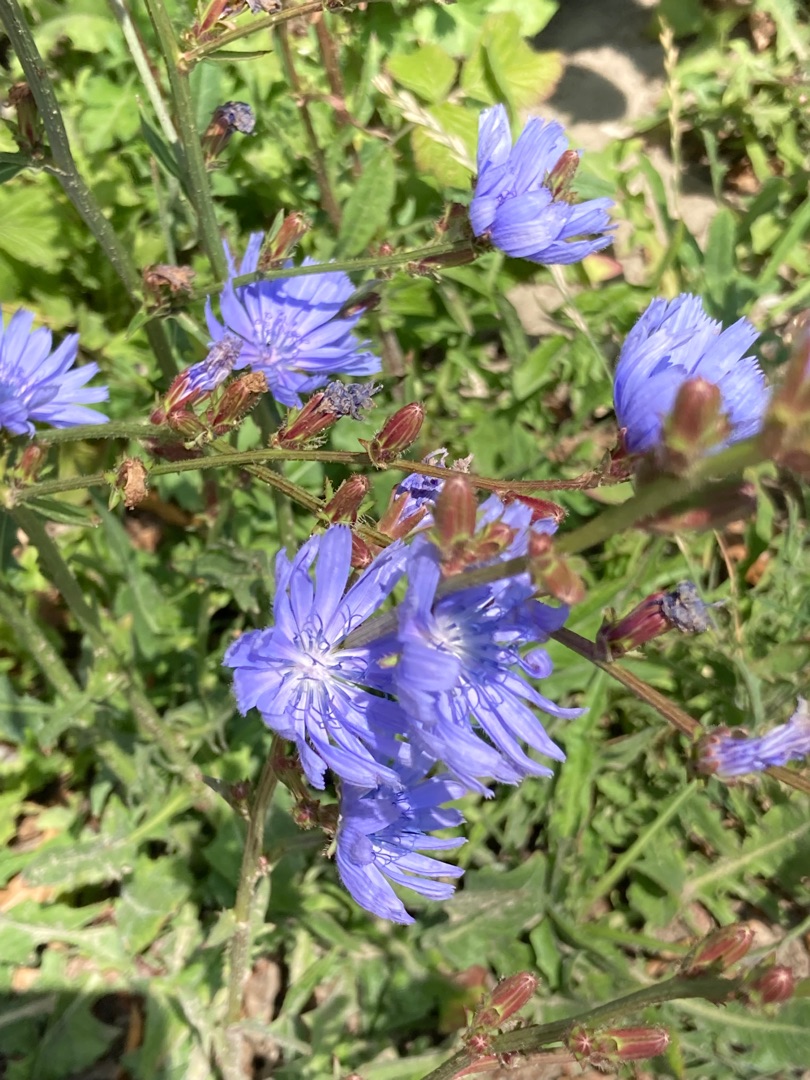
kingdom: Plantae
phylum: Tracheophyta
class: Magnoliopsida
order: Asterales
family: Asteraceae
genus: Cichorium
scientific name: Cichorium intybus
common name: Cikorie
